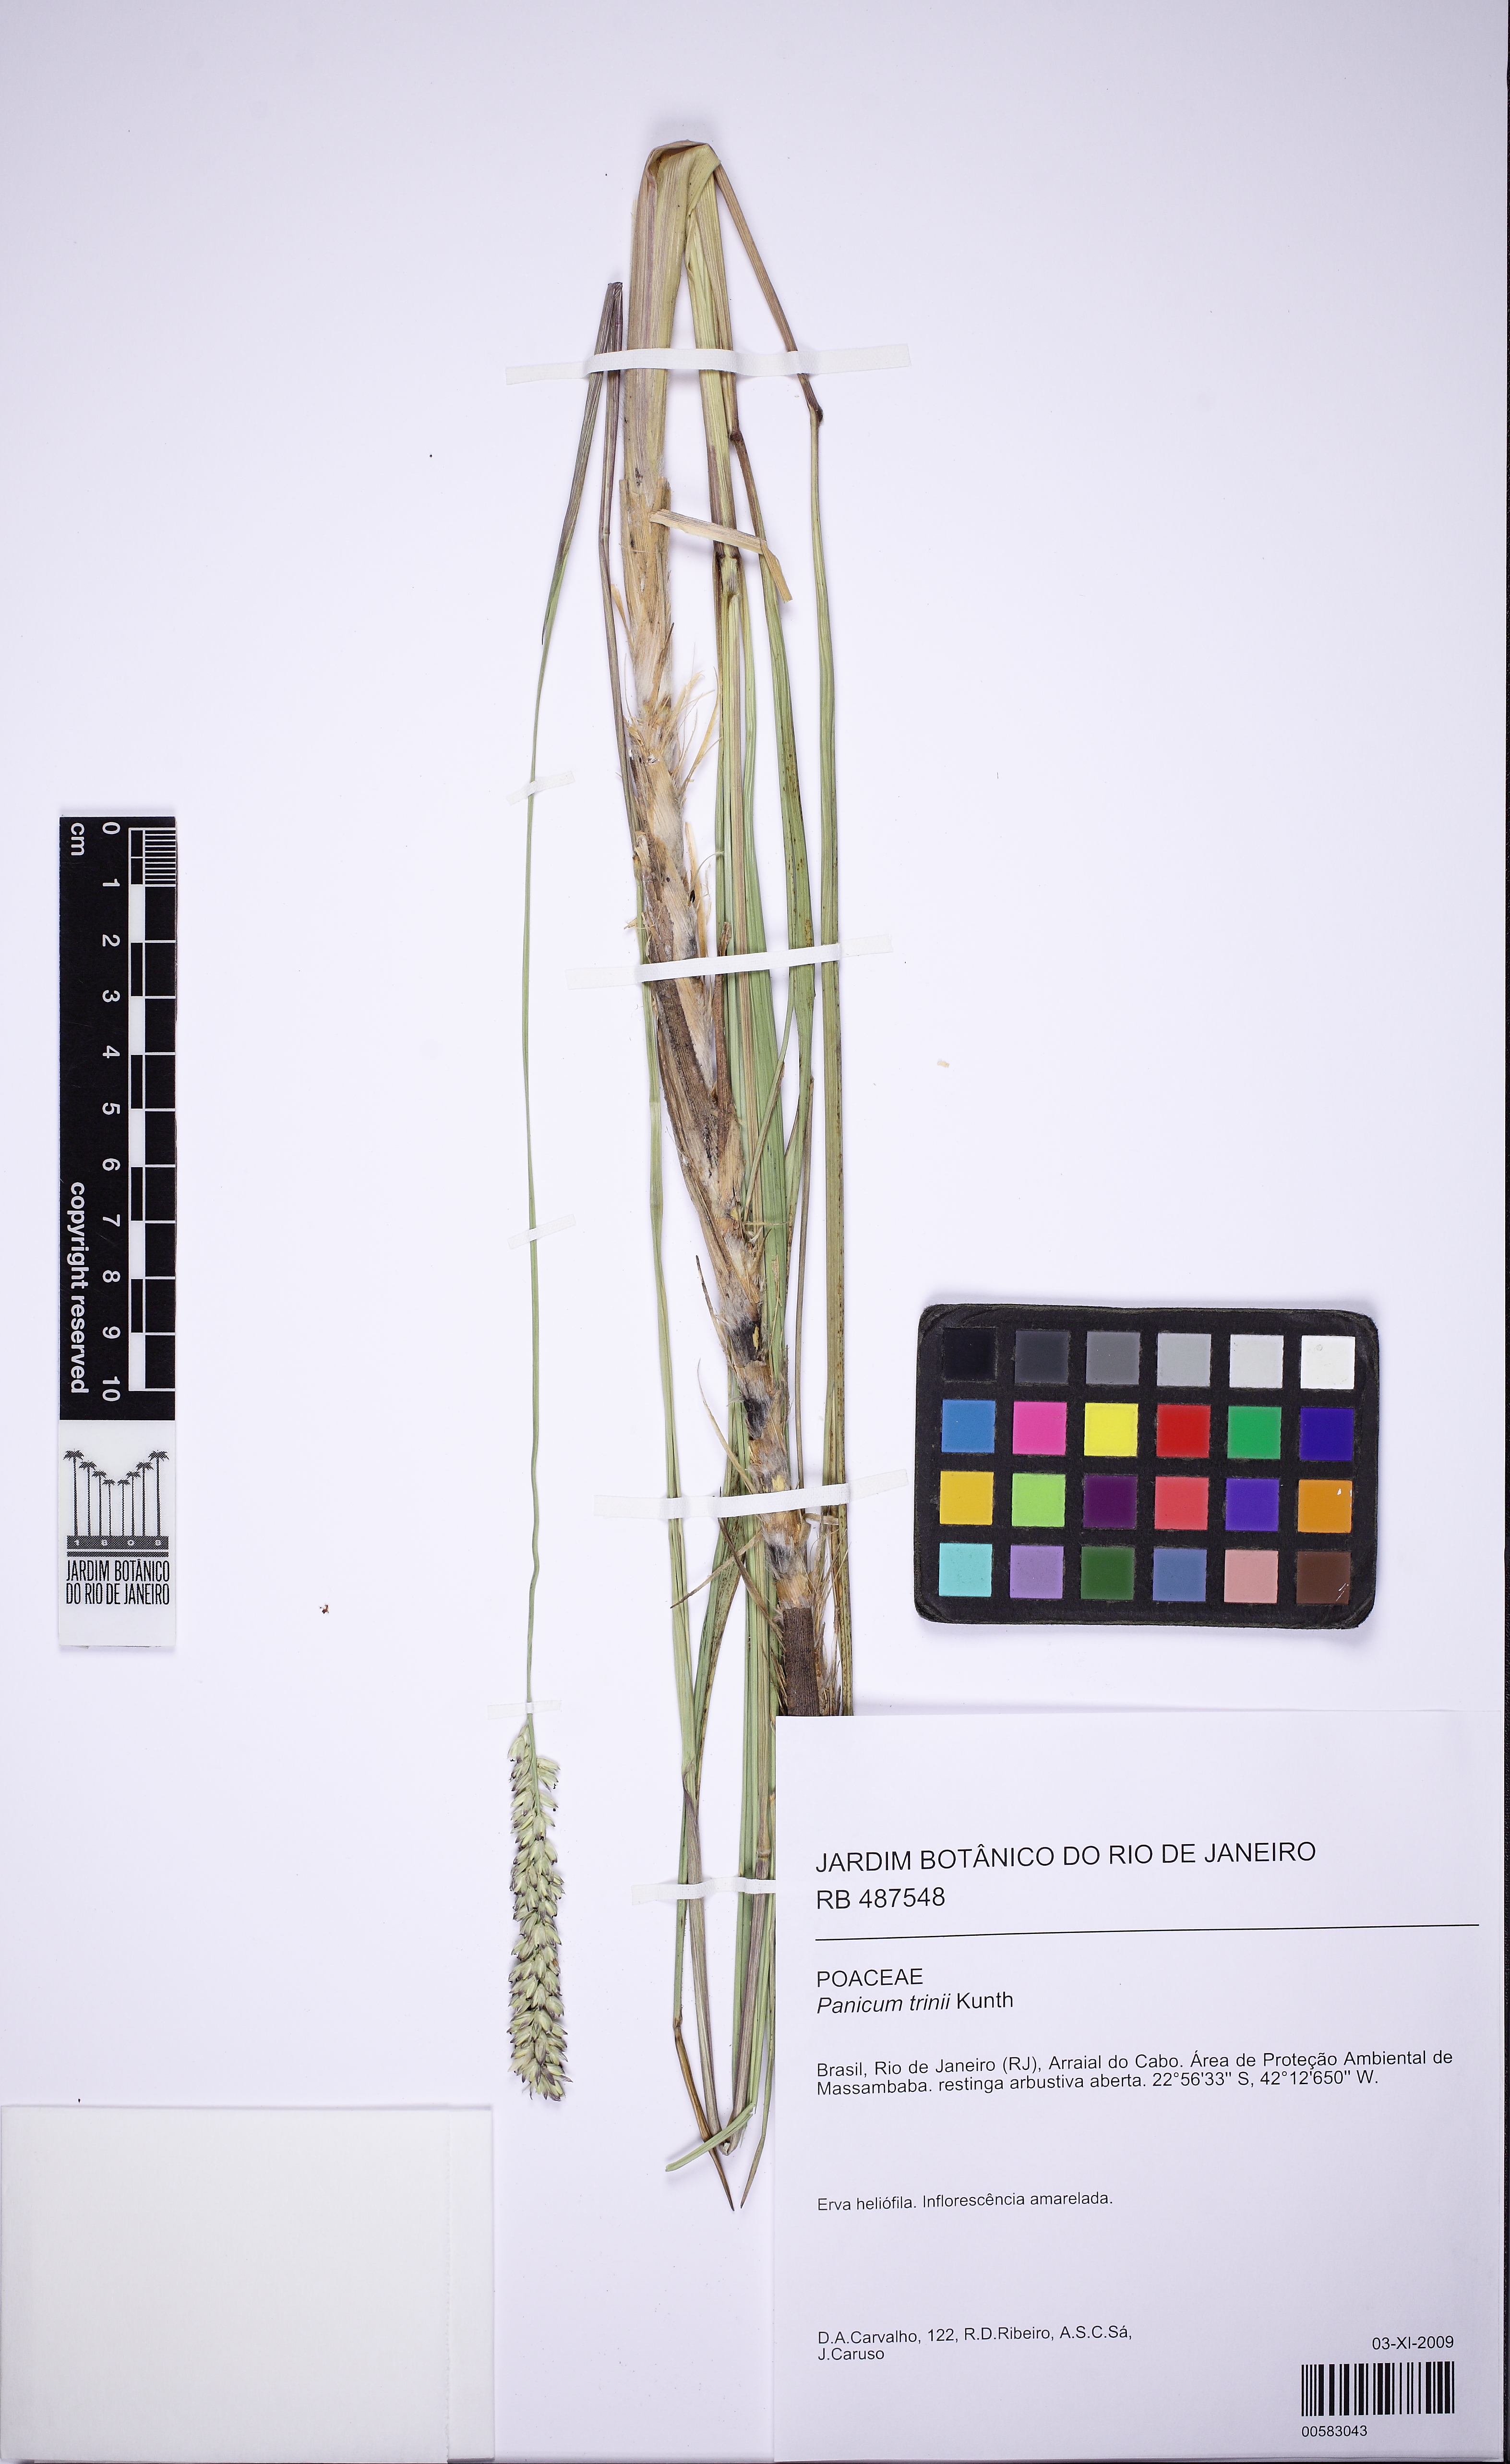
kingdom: Plantae
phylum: Tracheophyta
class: Liliopsida
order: Poales
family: Poaceae
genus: Renvoizea
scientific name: Renvoizea trinii
